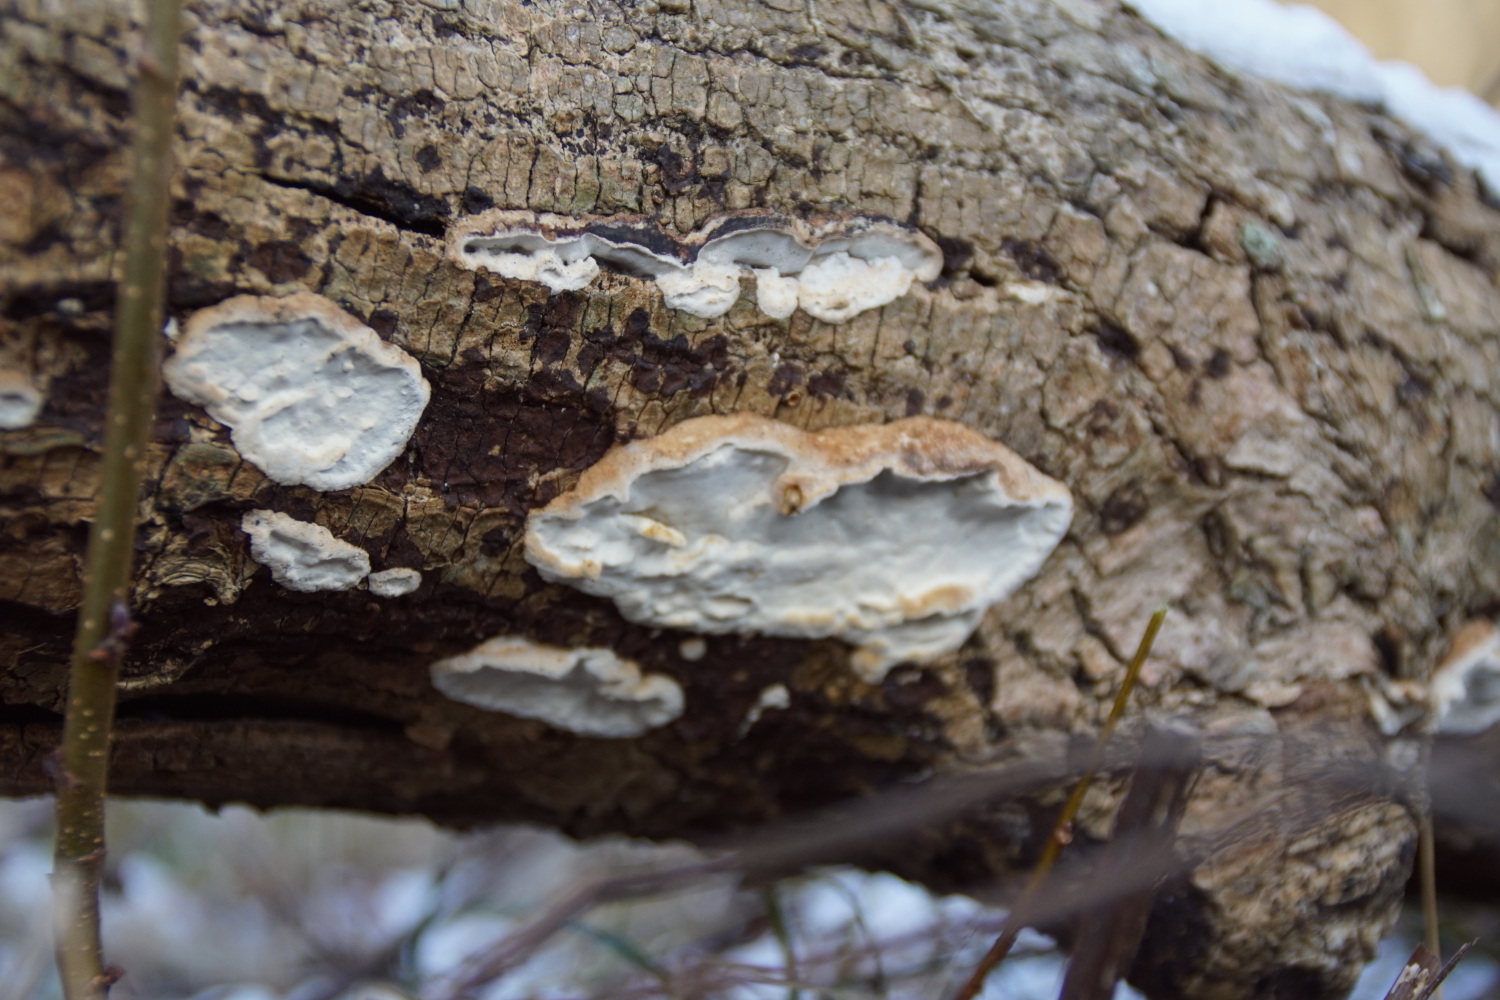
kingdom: Fungi
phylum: Basidiomycota
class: Agaricomycetes
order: Polyporales
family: Incrustoporiaceae
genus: Skeletocutis
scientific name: Skeletocutis nemoralis
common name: stor krystalporesvamp
